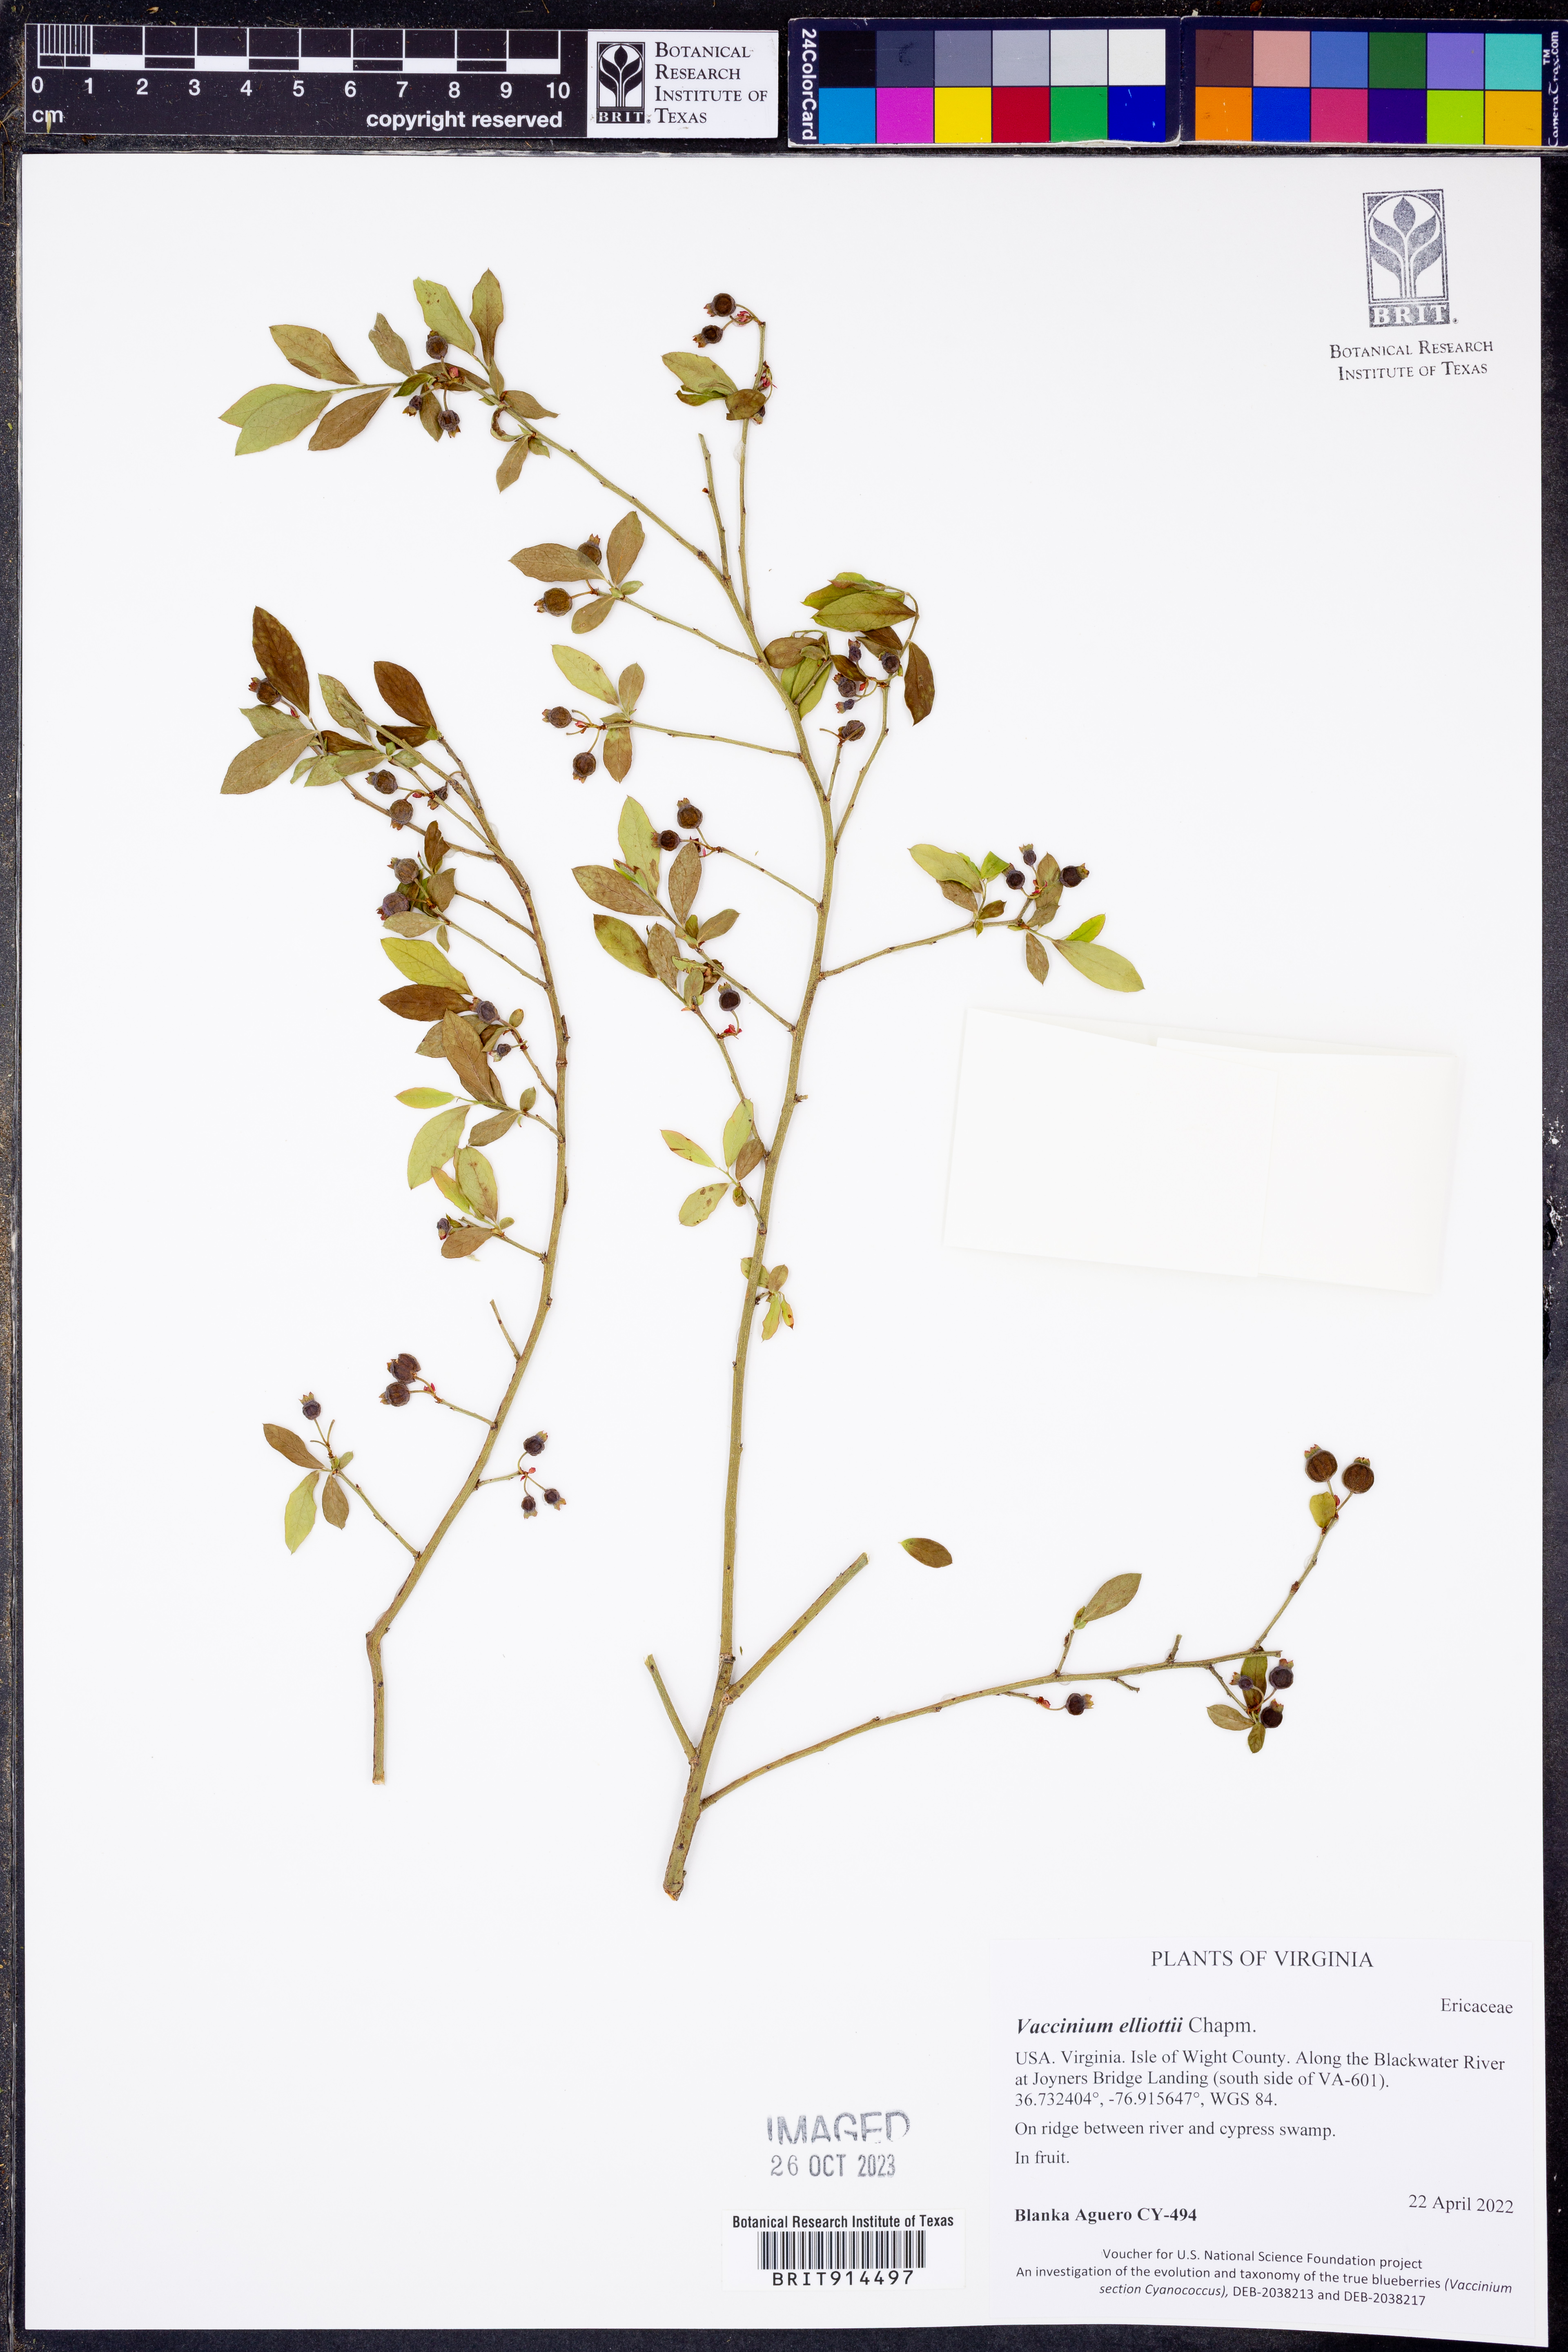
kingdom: Plantae
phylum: Tracheophyta
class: Magnoliopsida
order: Ericales
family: Ericaceae
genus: Vaccinium
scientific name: Vaccinium corymbosum
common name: Blueberry
